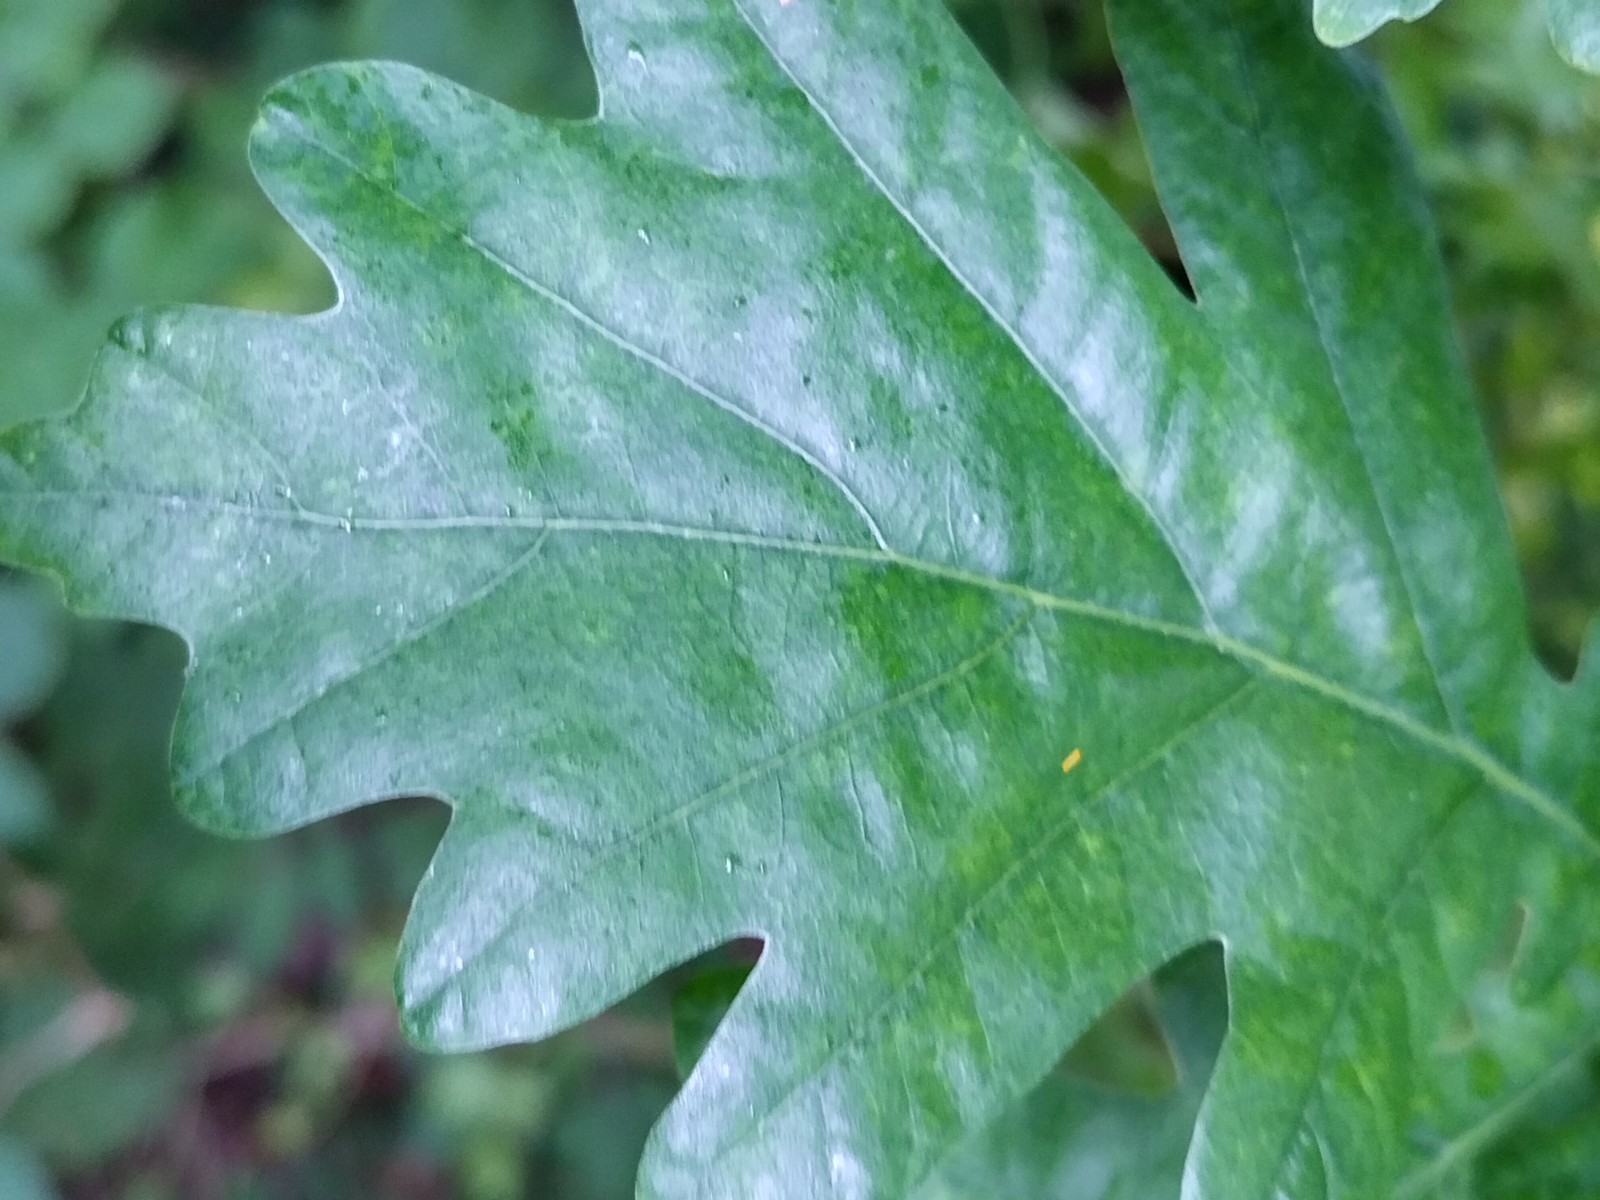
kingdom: Fungi
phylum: Ascomycota
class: Leotiomycetes
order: Helotiales
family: Erysiphaceae
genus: Erysiphe
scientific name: Erysiphe alphitoides
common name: ege-meldug
